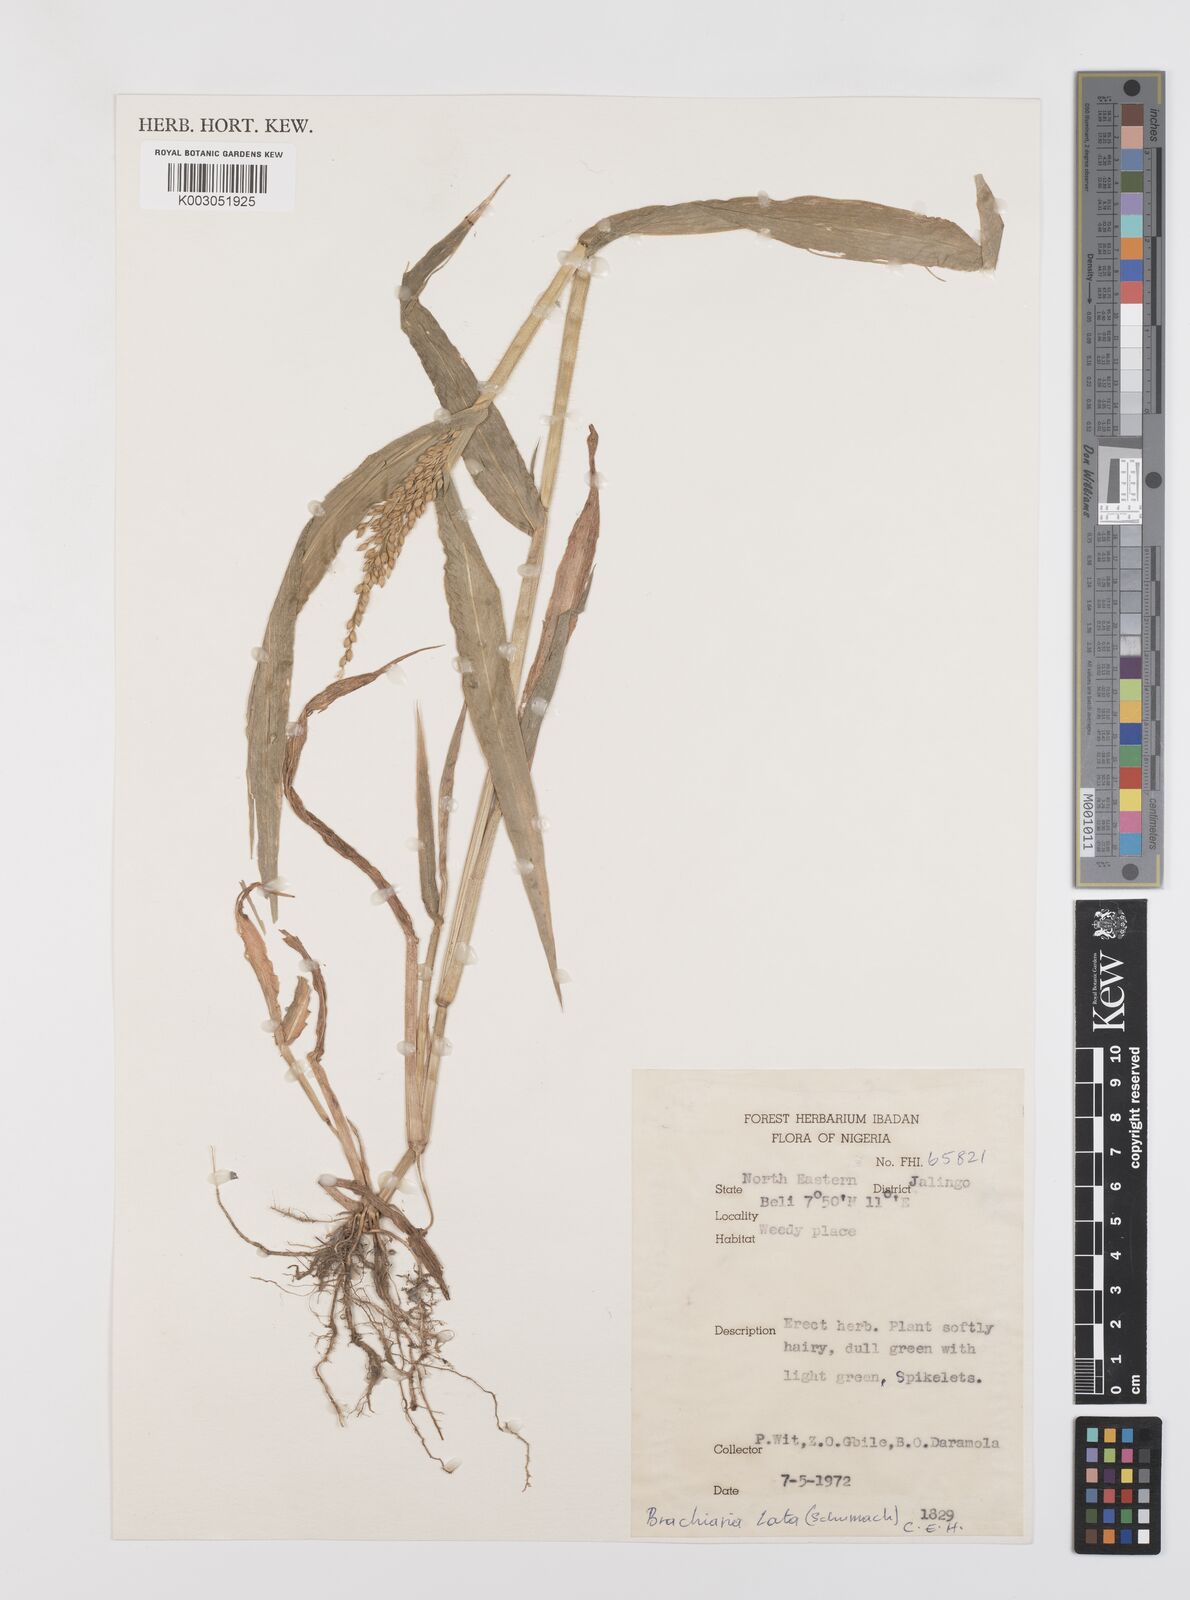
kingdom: Plantae
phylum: Tracheophyta
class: Liliopsida
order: Poales
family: Poaceae
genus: Urochloa
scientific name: Urochloa lata
